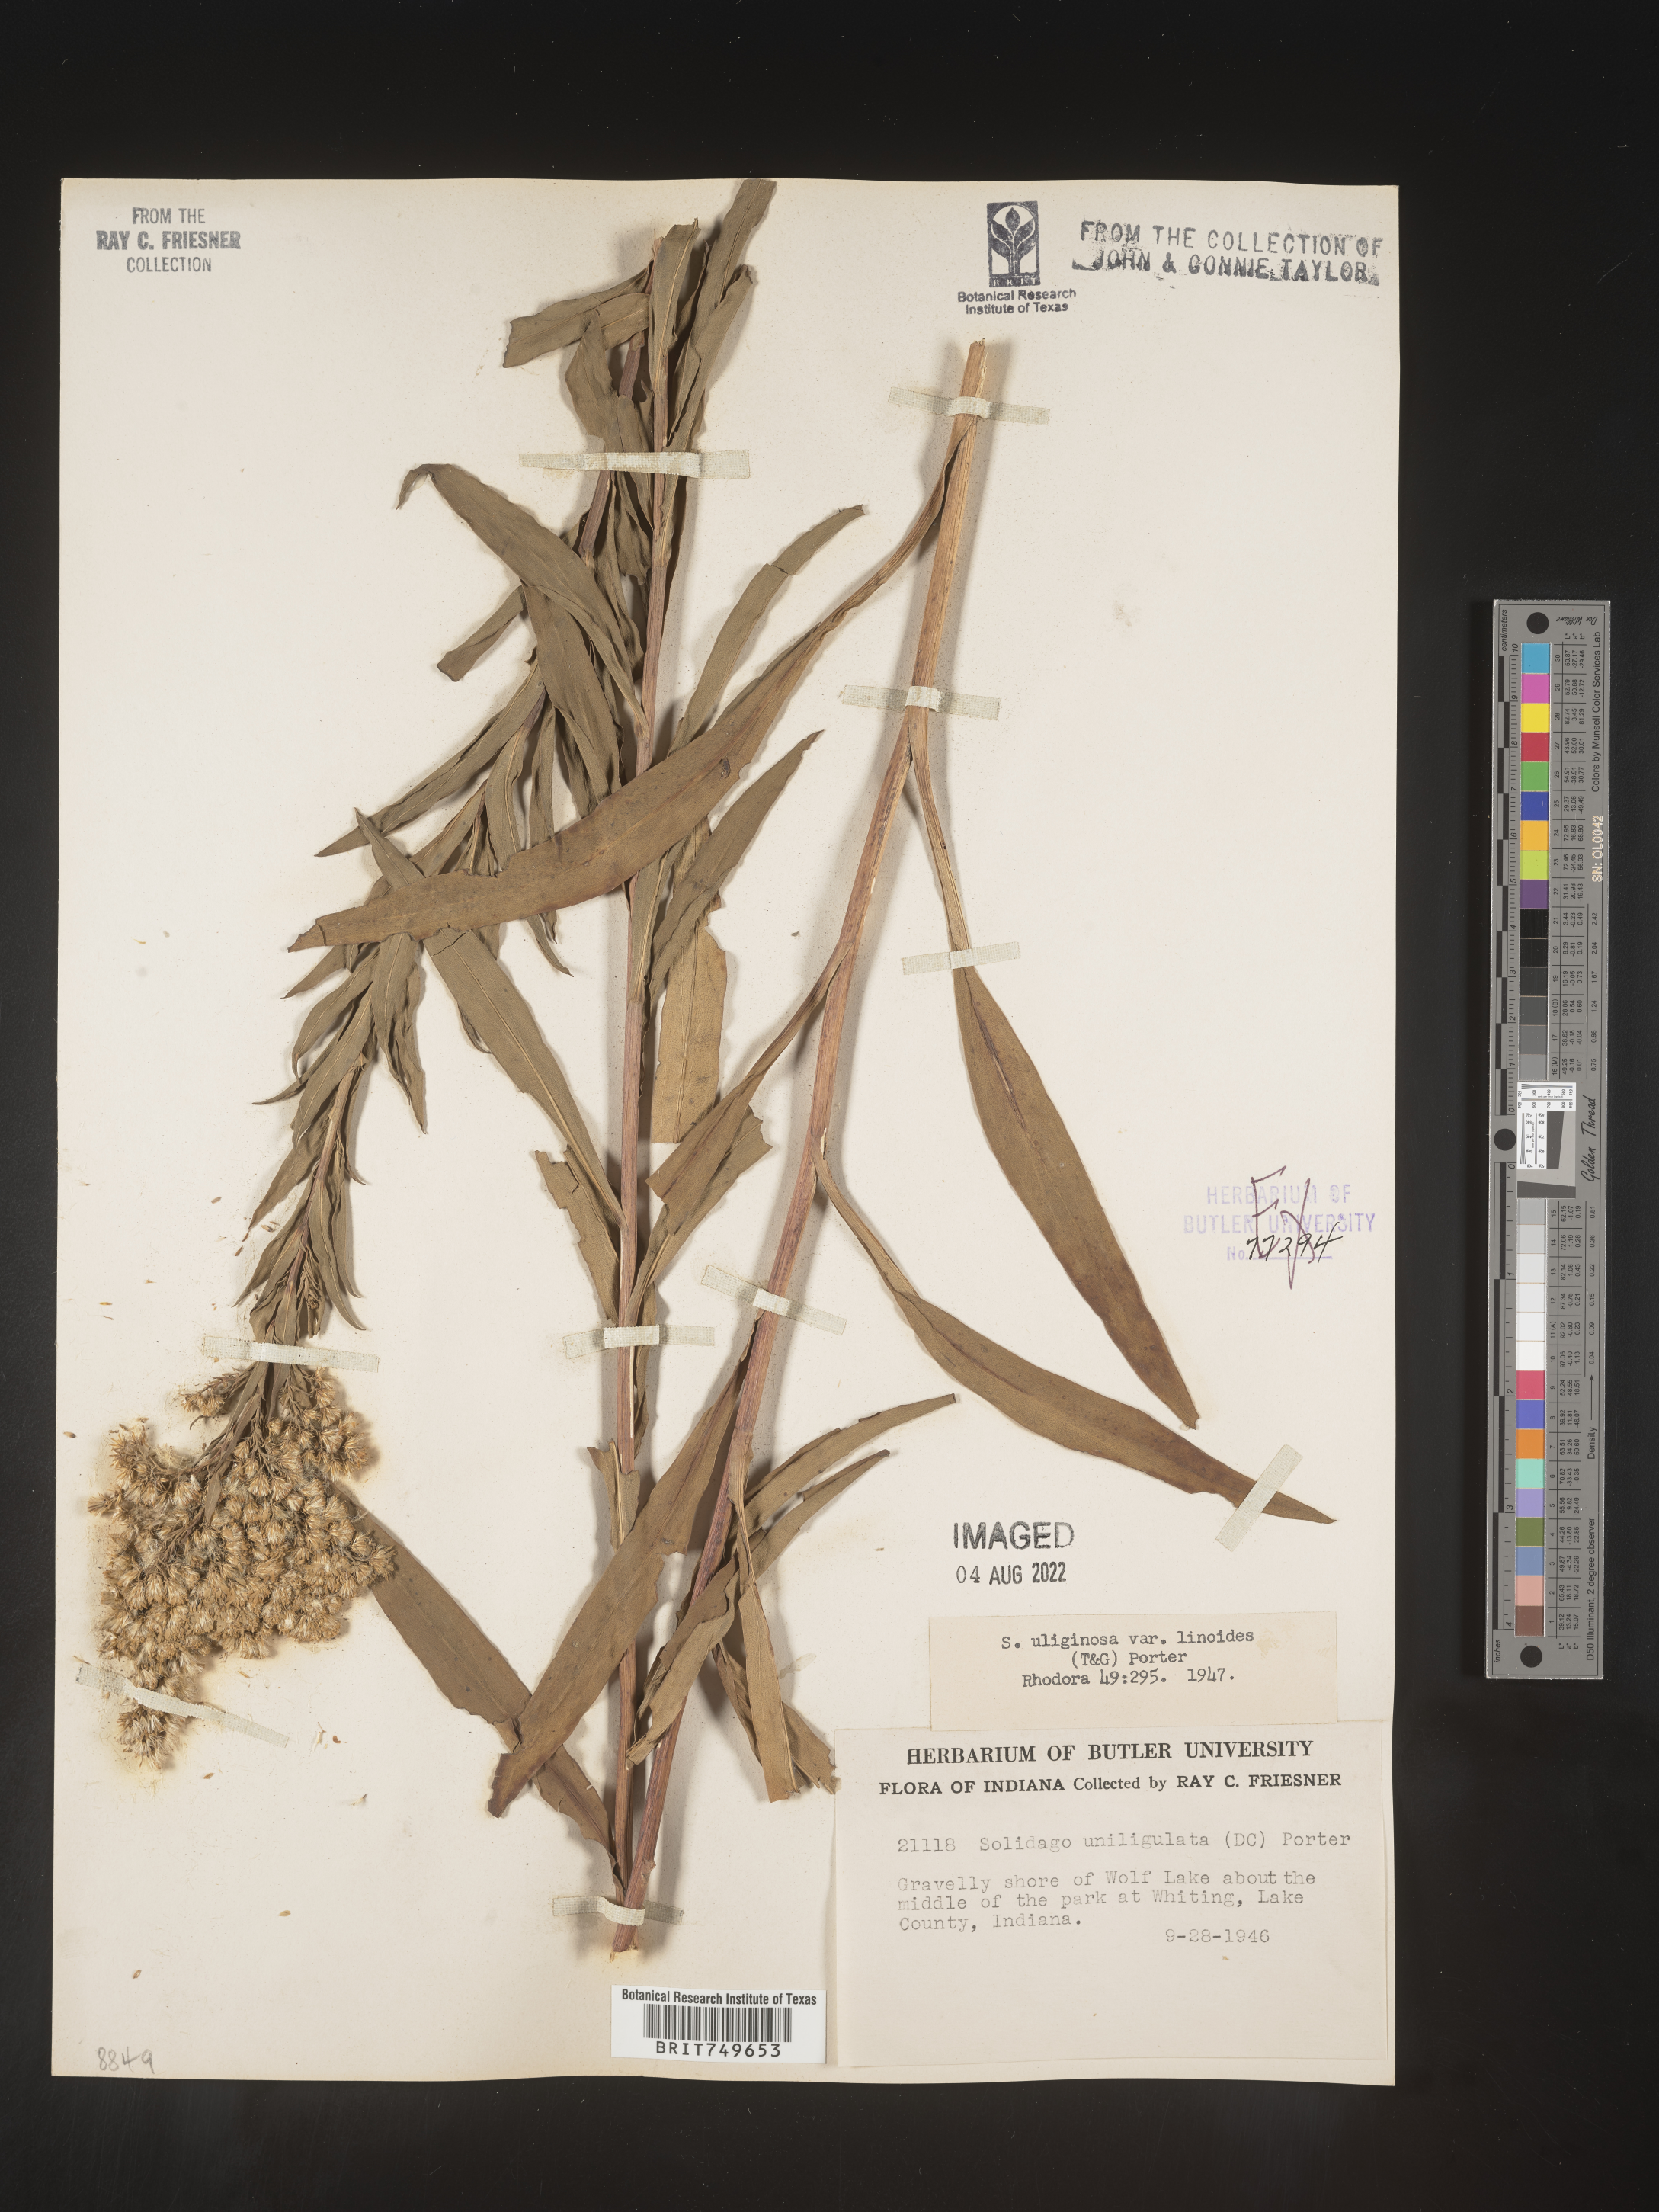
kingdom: Plantae
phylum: Tracheophyta
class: Magnoliopsida
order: Asterales
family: Asteraceae
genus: Solidago
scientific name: Solidago uliginosa
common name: Bog goldenrod
